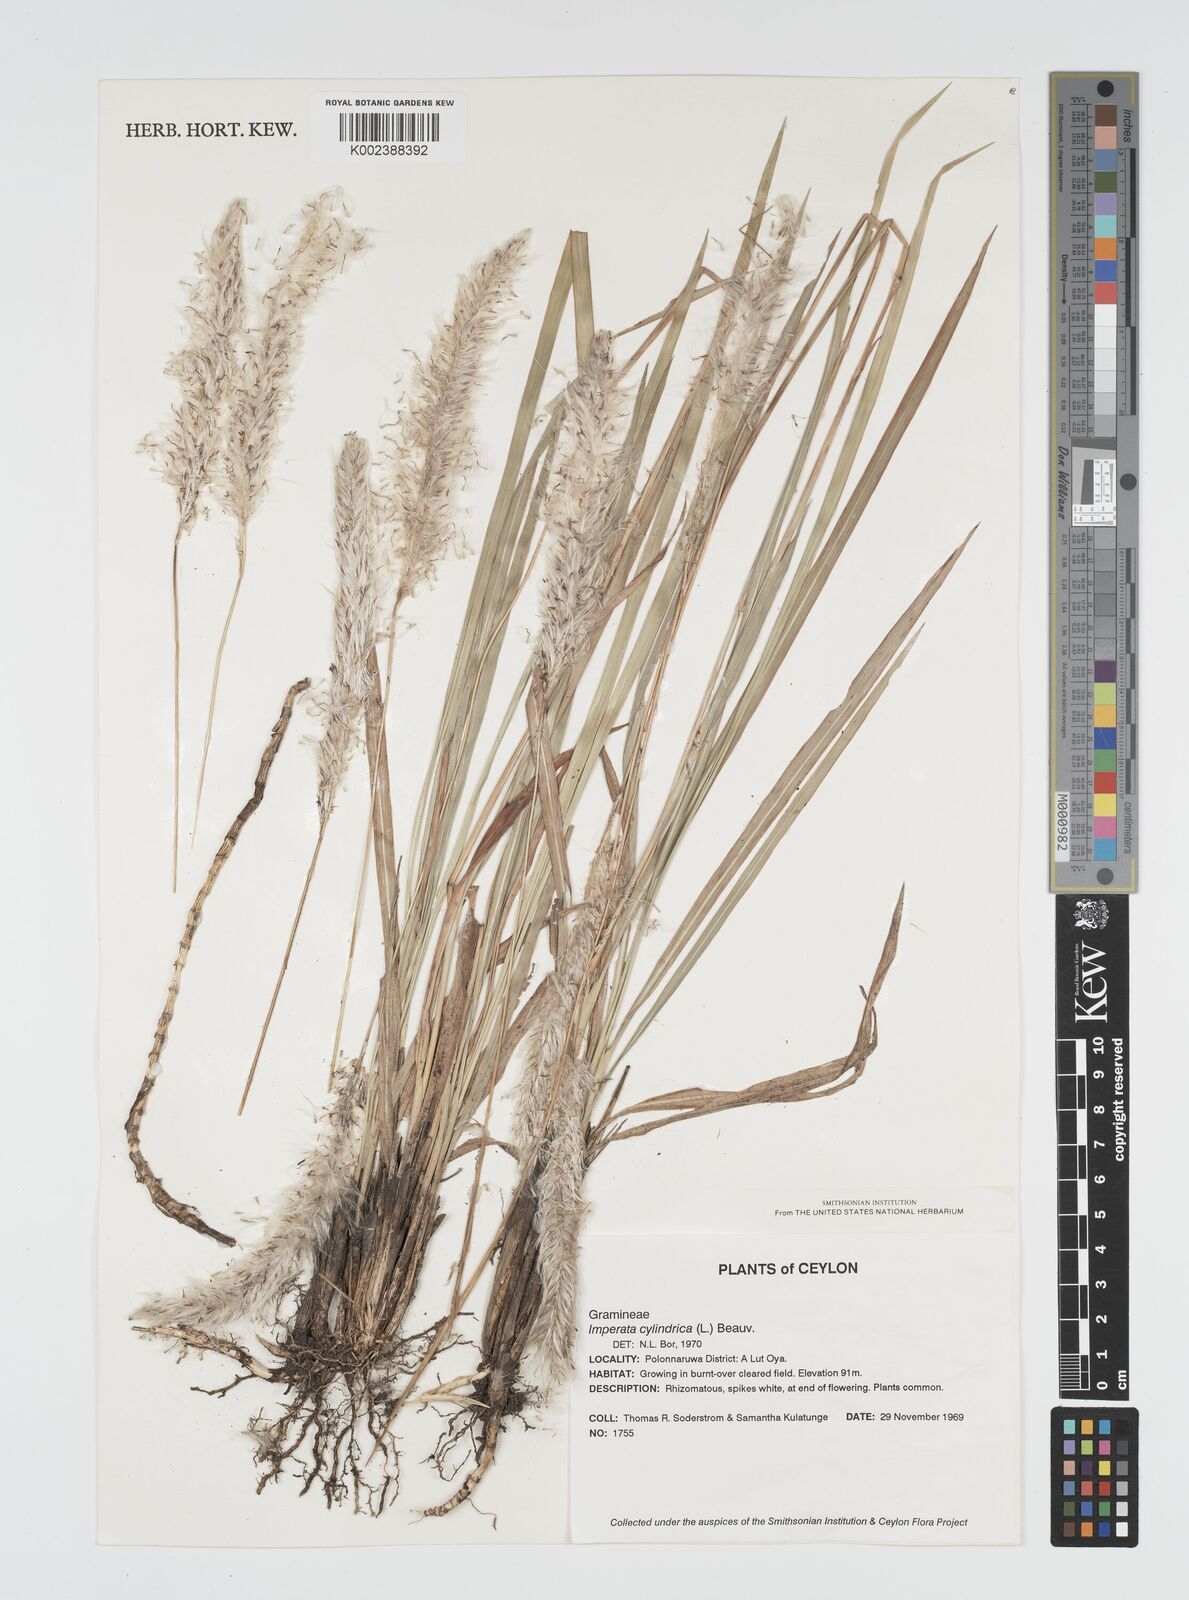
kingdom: Plantae
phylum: Tracheophyta
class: Liliopsida
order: Poales
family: Poaceae
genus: Imperata
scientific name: Imperata cylindrica
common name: Cogongrass
